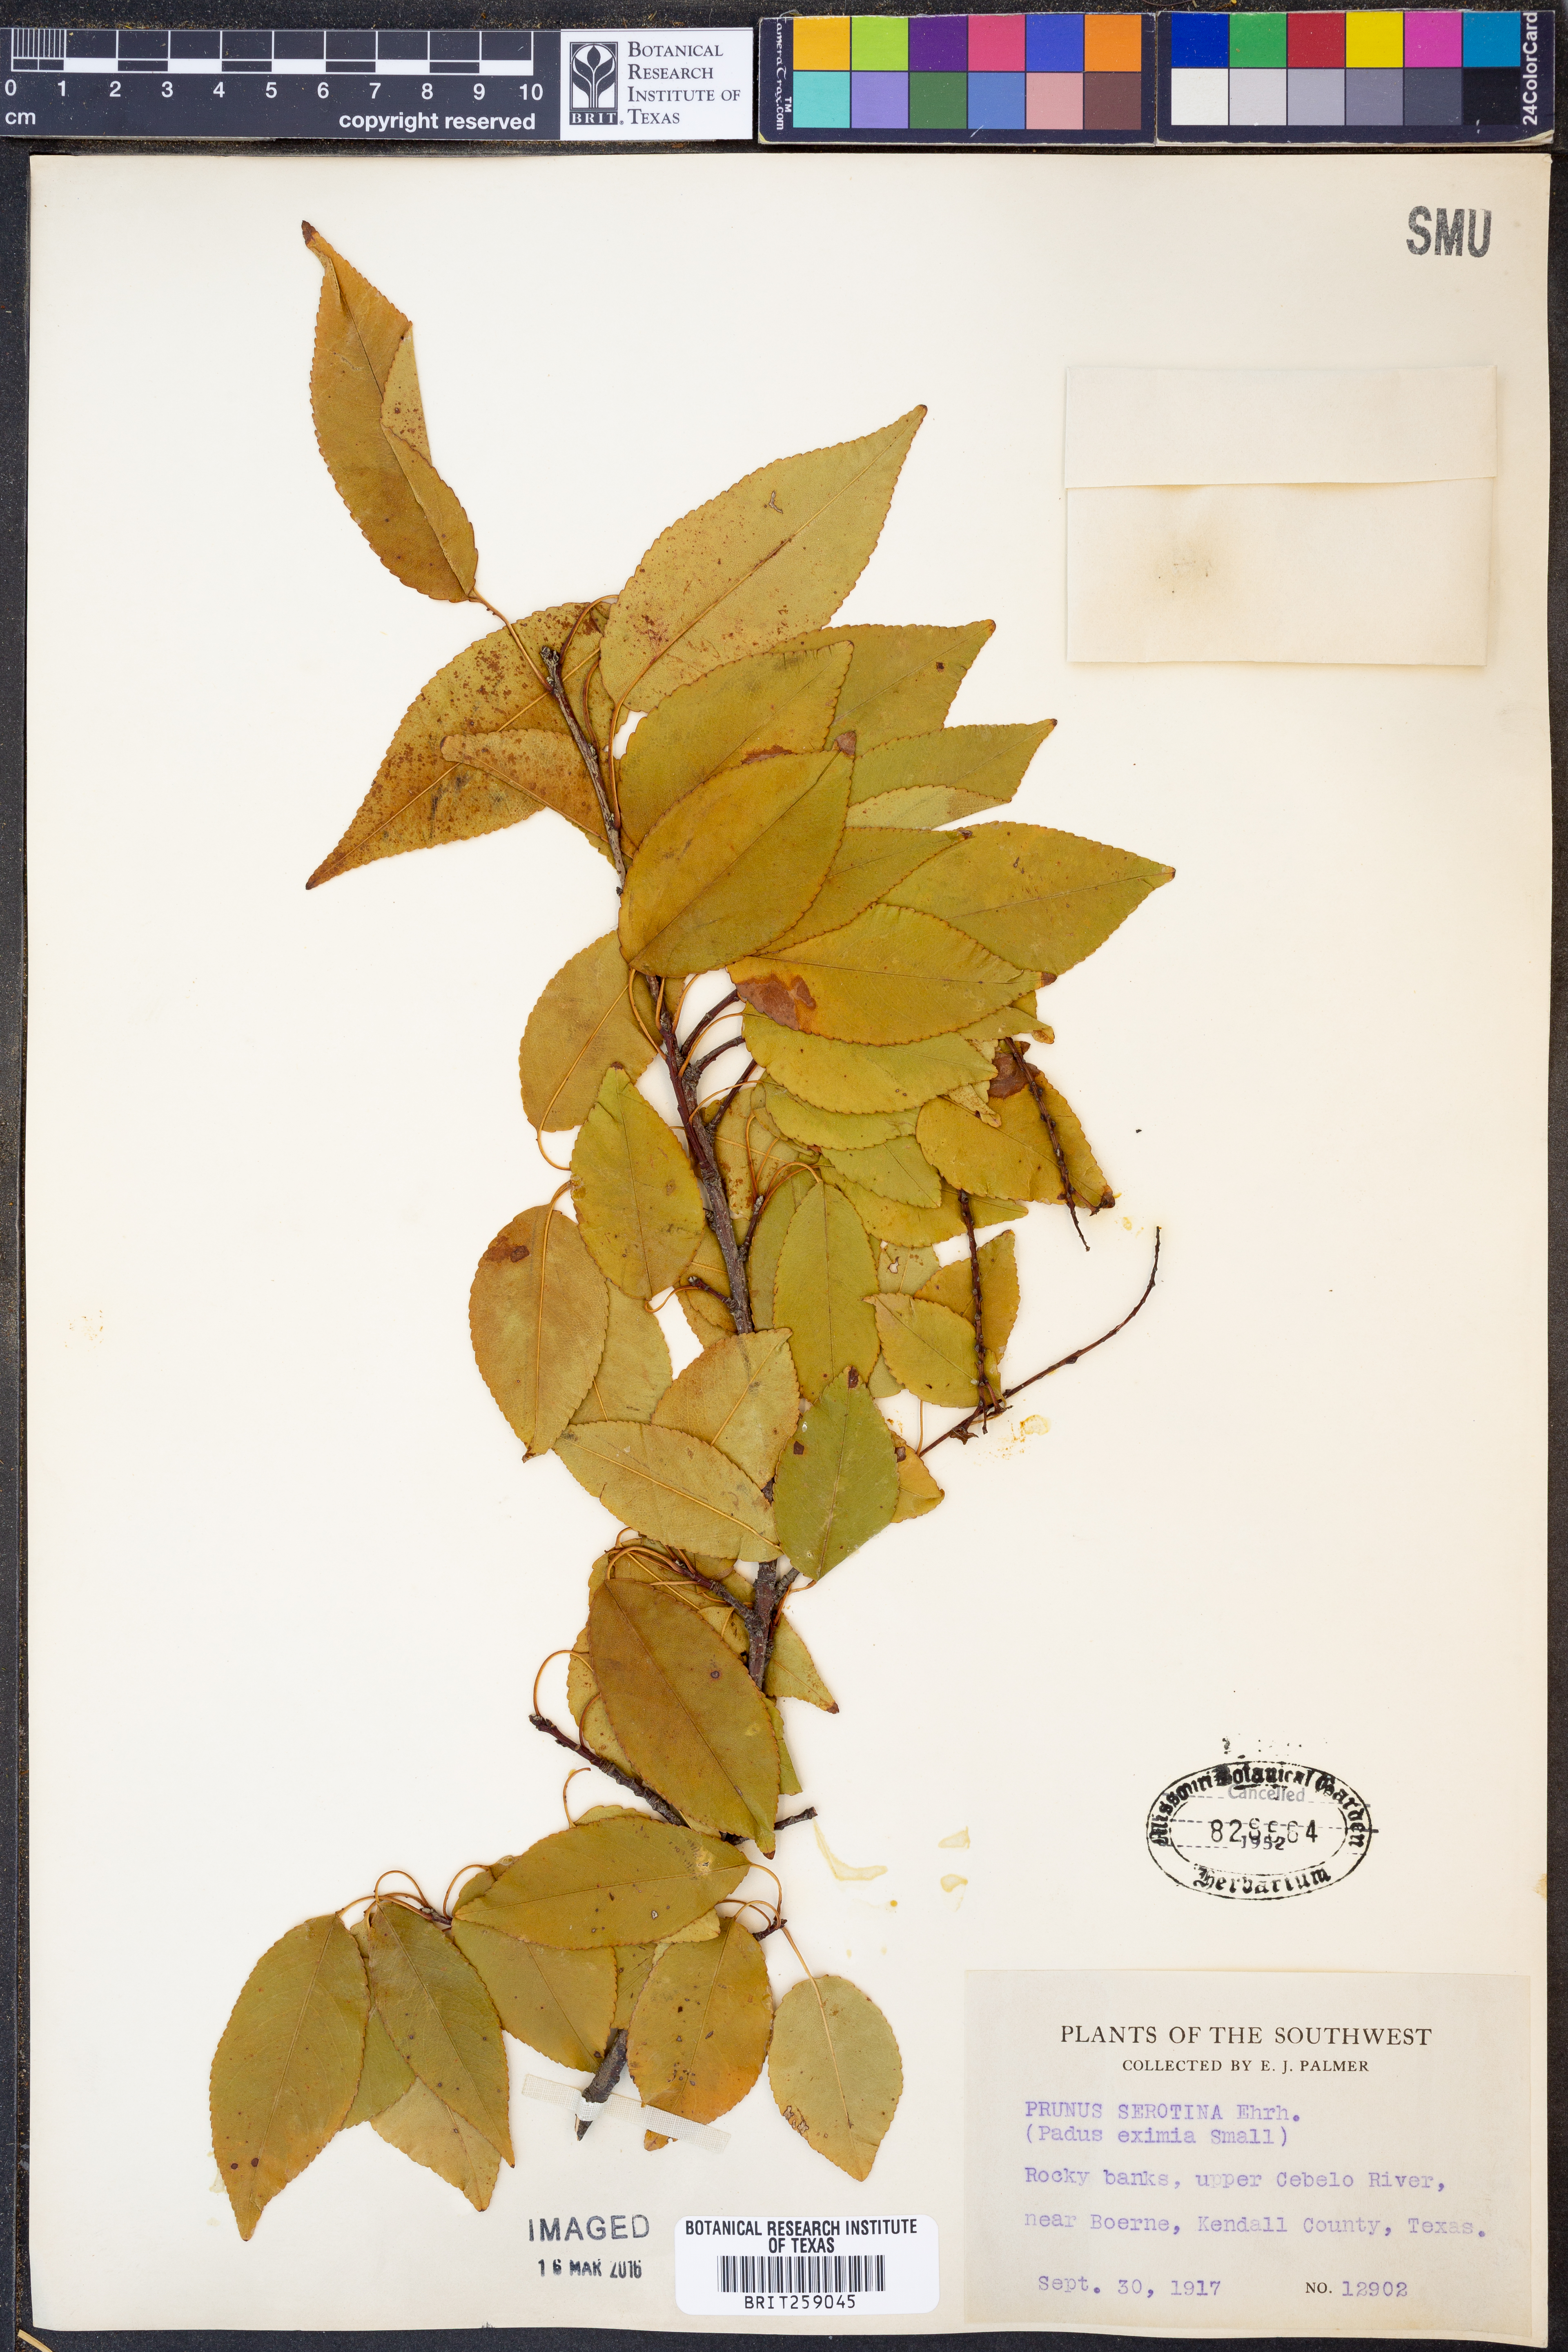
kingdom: Plantae
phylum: Tracheophyta
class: Magnoliopsida
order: Rosales
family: Rosaceae
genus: Prunus
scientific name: Prunus serotina
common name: Black cherry
